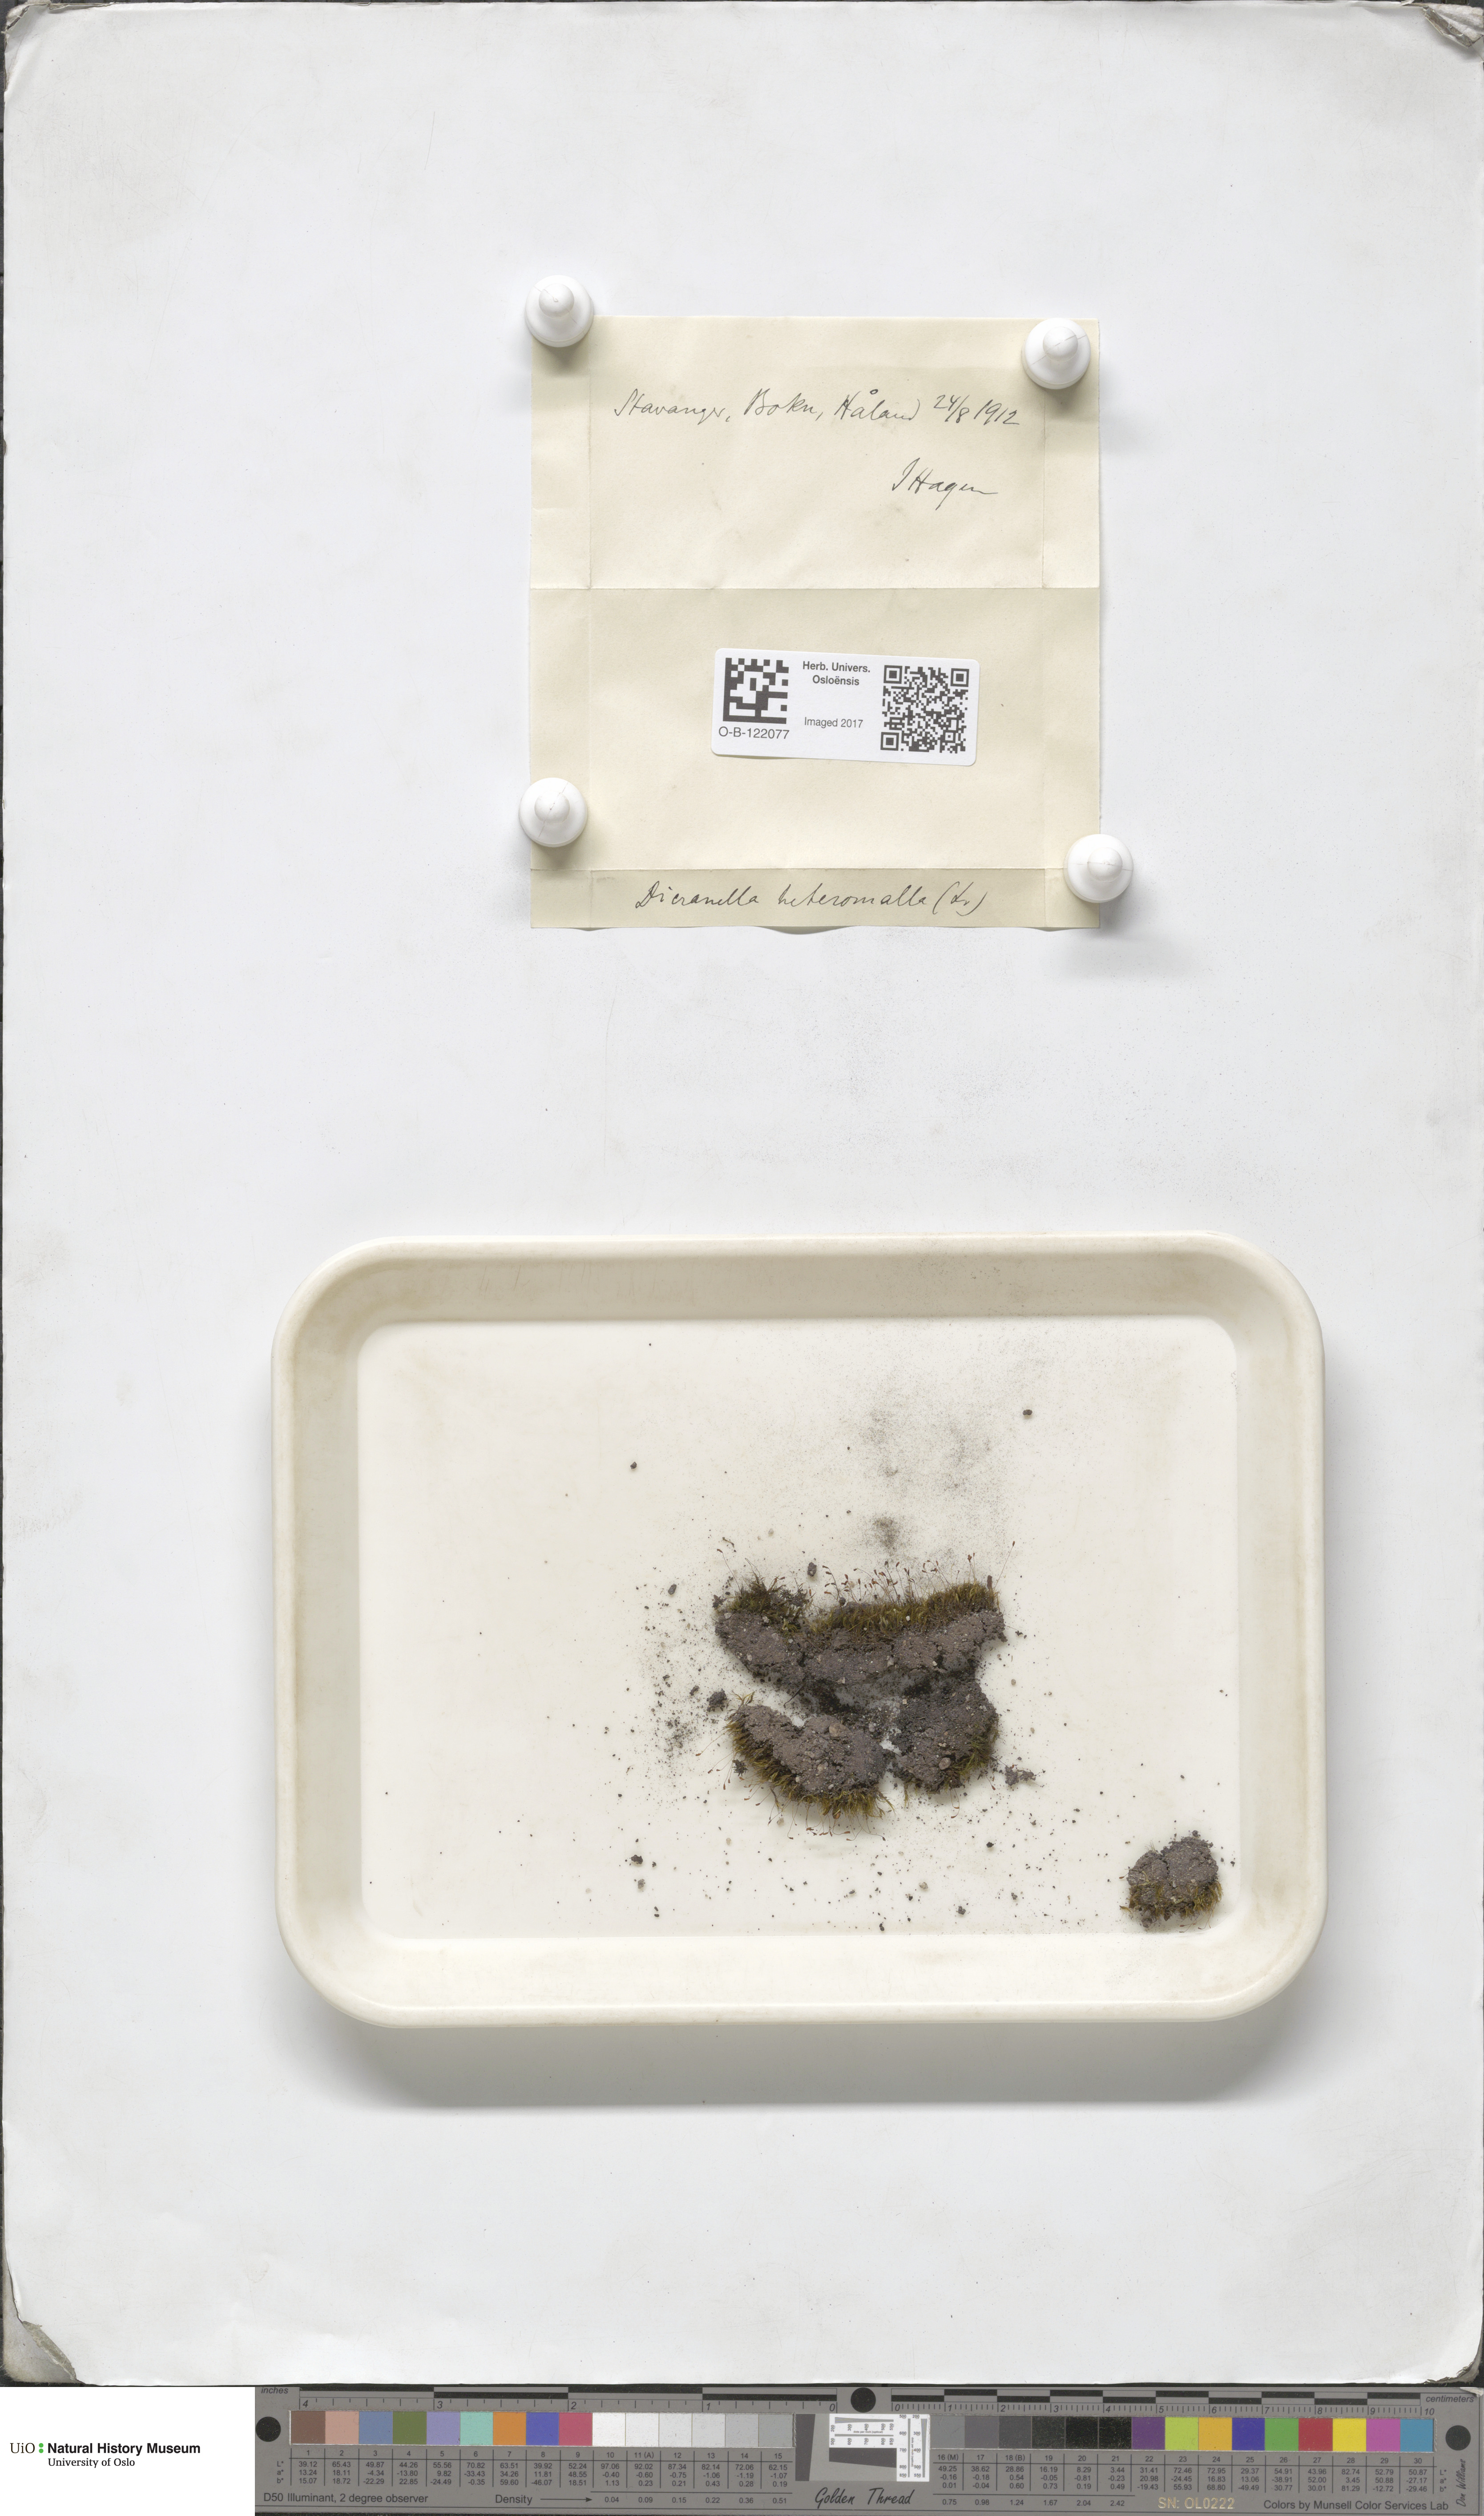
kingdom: Plantae
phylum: Bryophyta
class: Bryopsida
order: Dicranales
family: Dicranellaceae
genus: Dicranella
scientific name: Dicranella heteromalla
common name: Silky forklet moss
